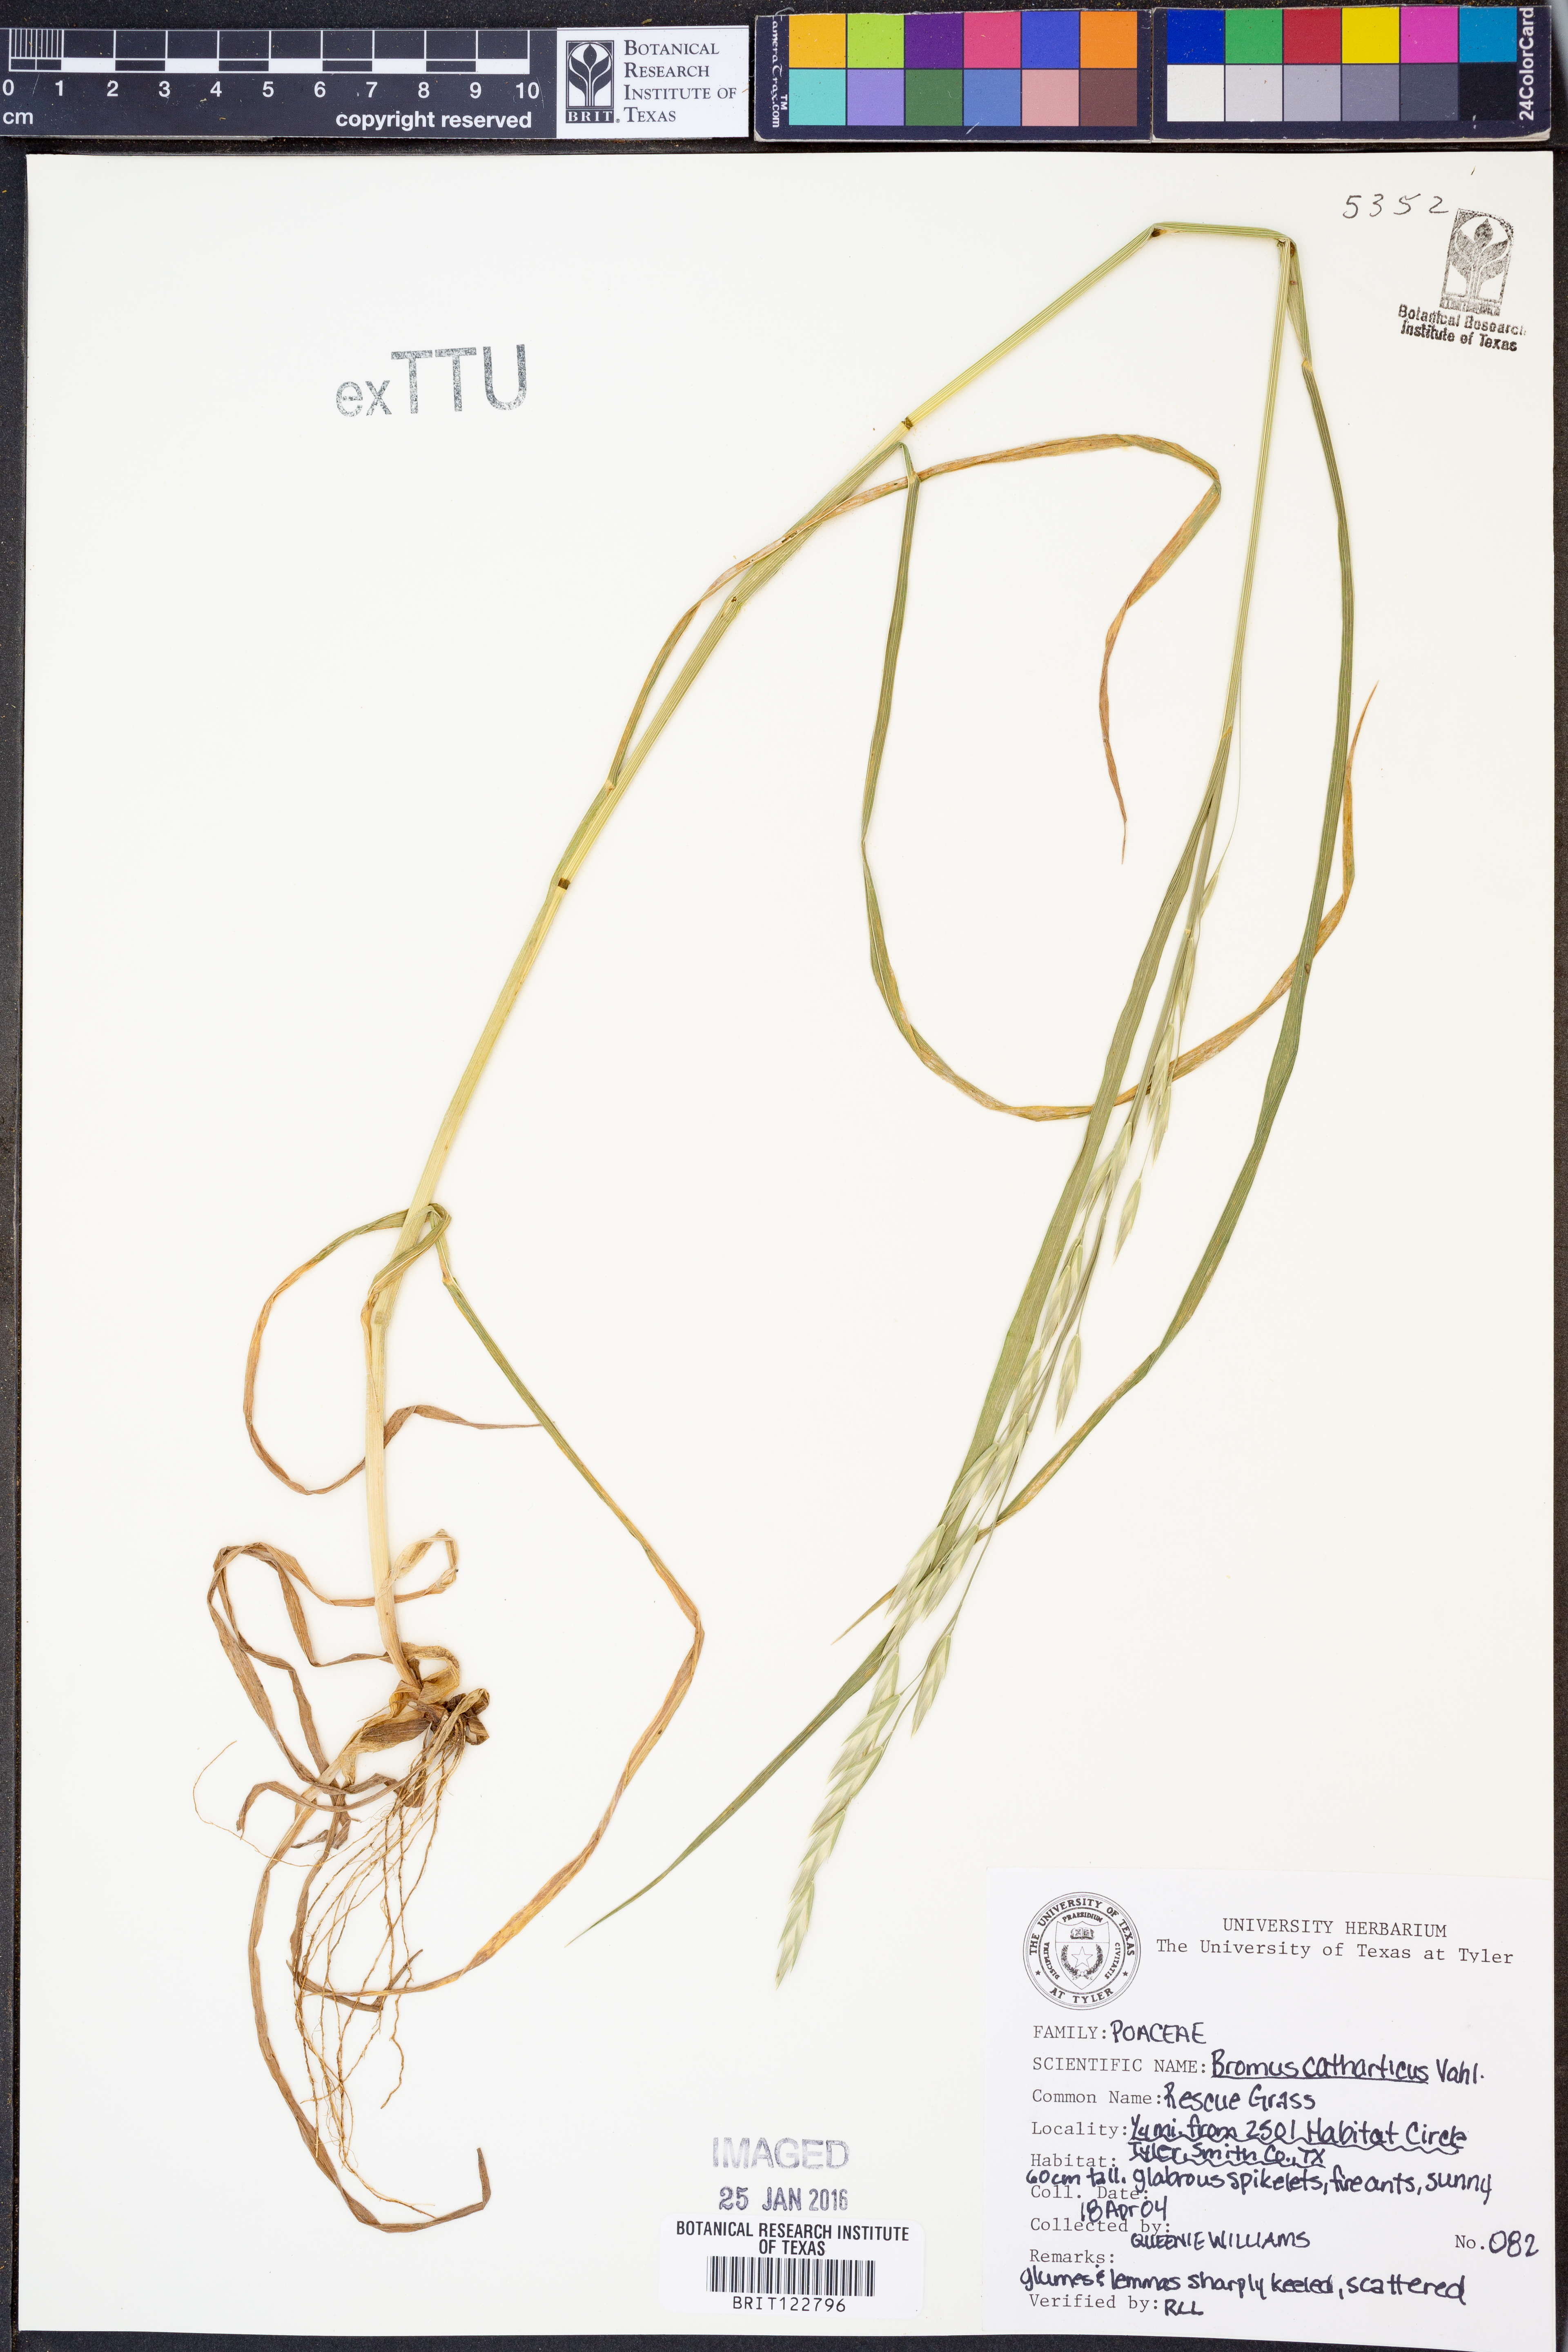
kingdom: Plantae
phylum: Tracheophyta
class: Liliopsida
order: Poales
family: Poaceae
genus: Bromus
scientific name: Bromus catharticus
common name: Rescuegrass
